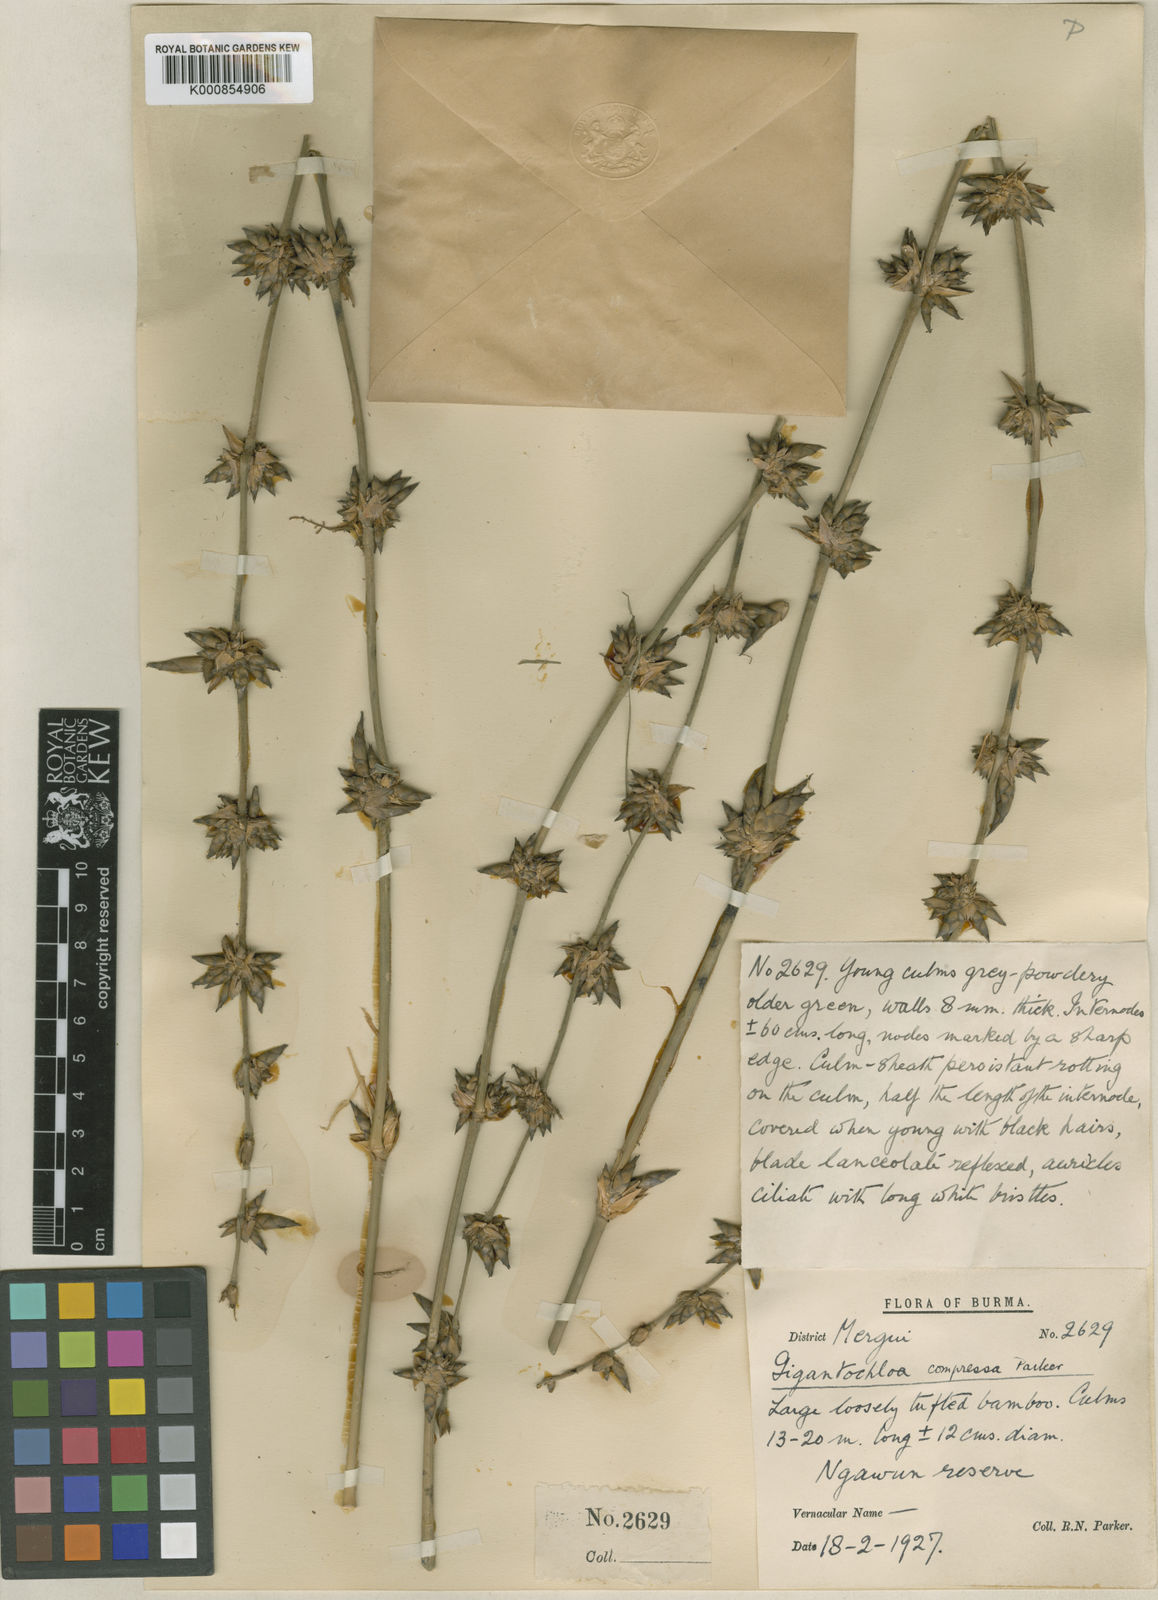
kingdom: Plantae
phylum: Tracheophyta
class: Liliopsida
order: Poales
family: Poaceae
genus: Gigantochloa
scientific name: Gigantochloa compressa
